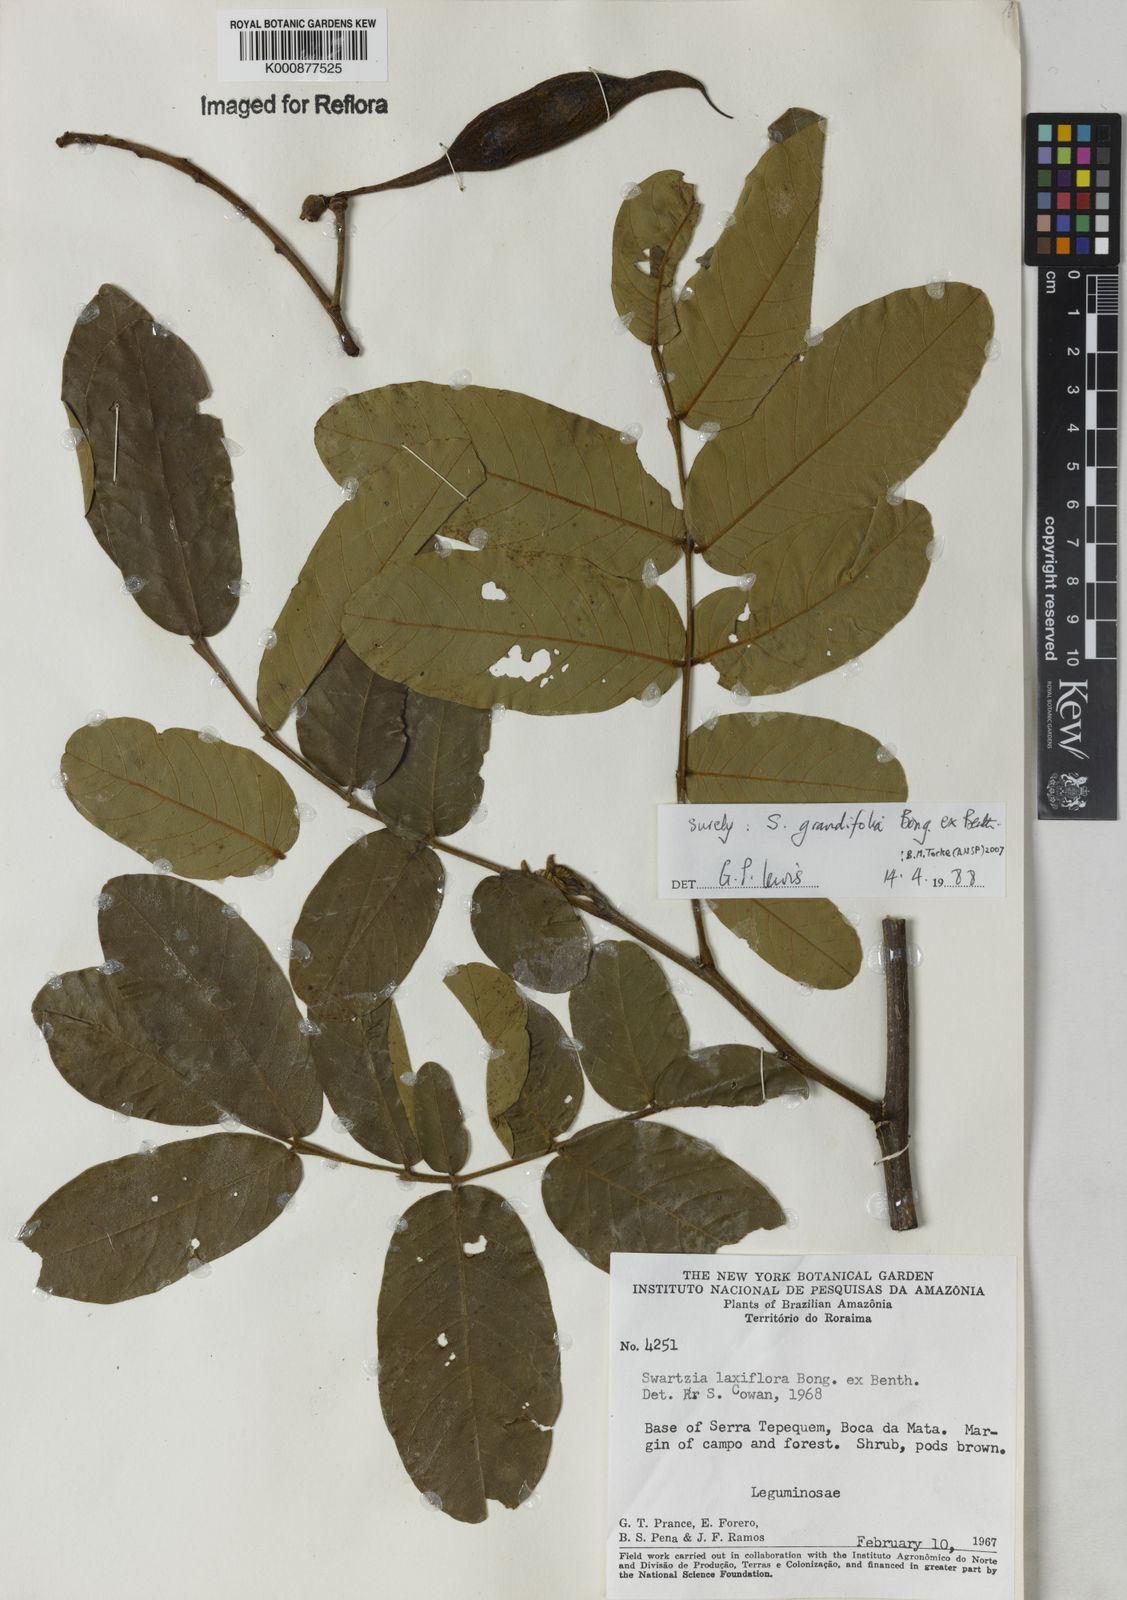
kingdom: Plantae
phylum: Tracheophyta
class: Magnoliopsida
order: Fabales
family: Fabaceae
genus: Swartzia
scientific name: Swartzia grandifolia
